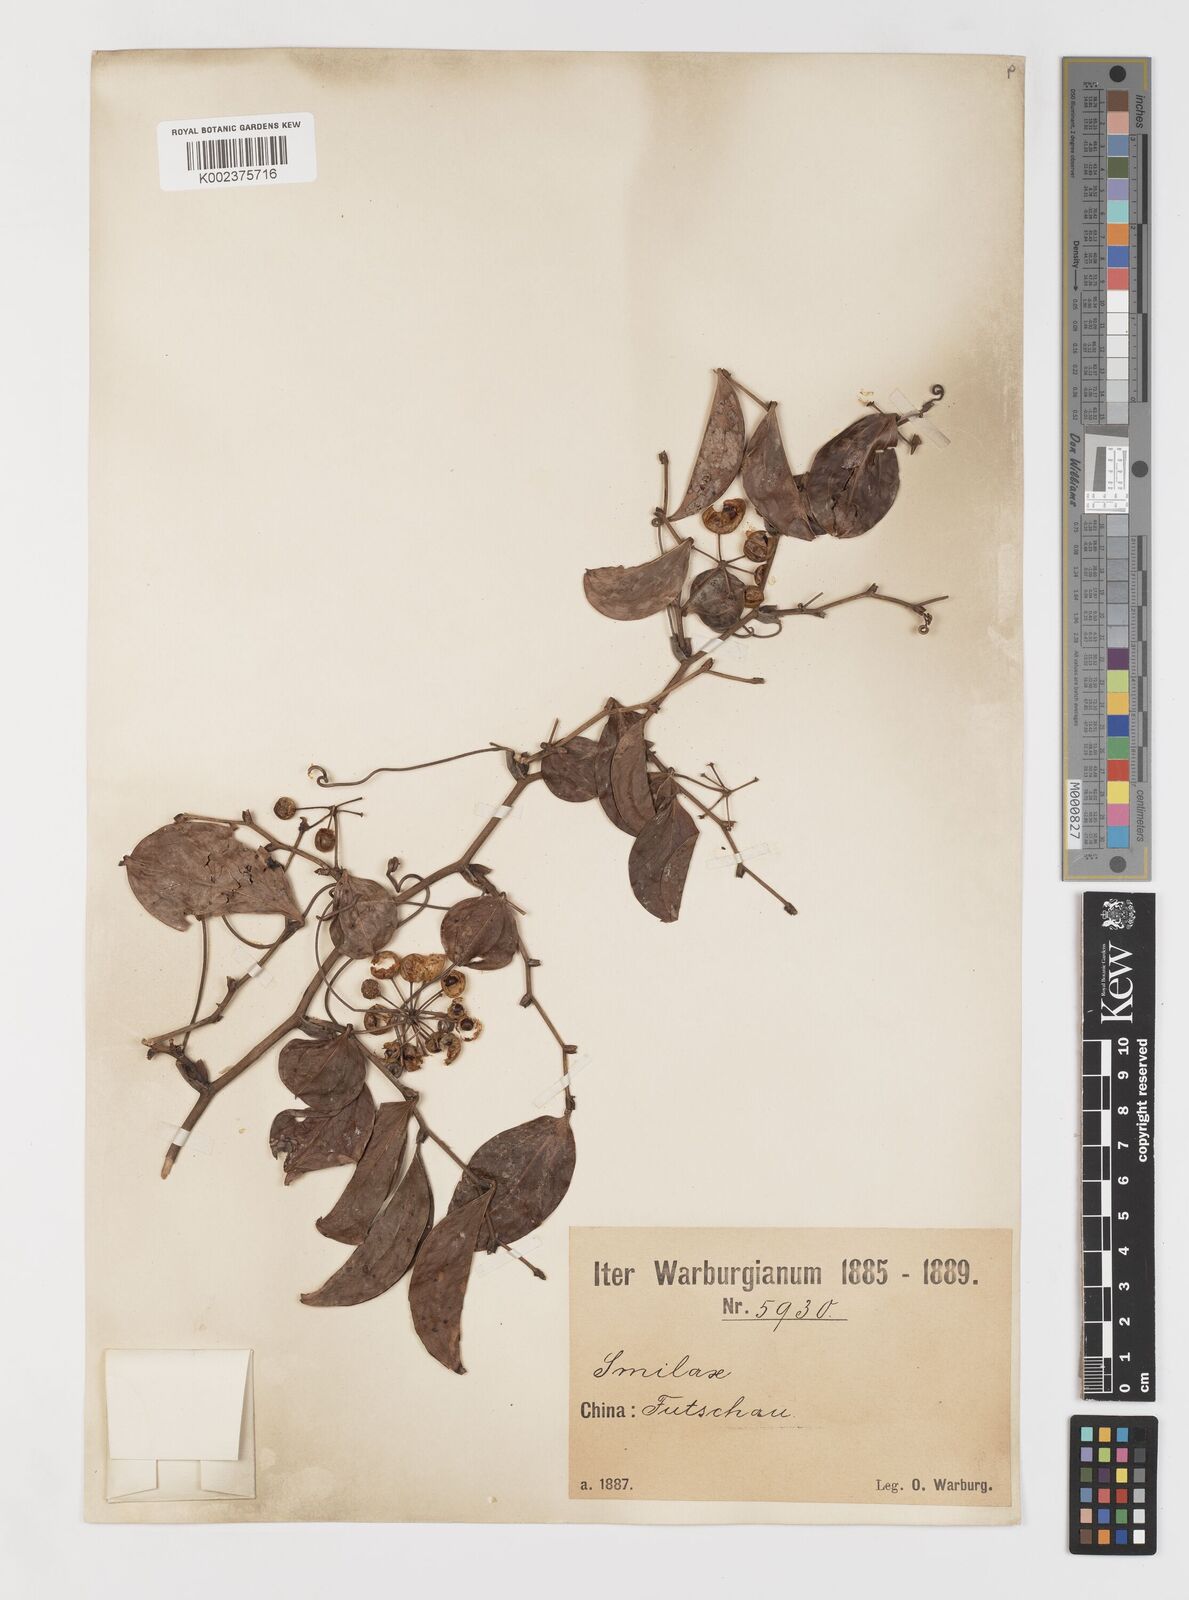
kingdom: Plantae
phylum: Tracheophyta
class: Liliopsida
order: Liliales
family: Smilacaceae
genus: Smilax
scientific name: Smilax china
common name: Chinaroot
